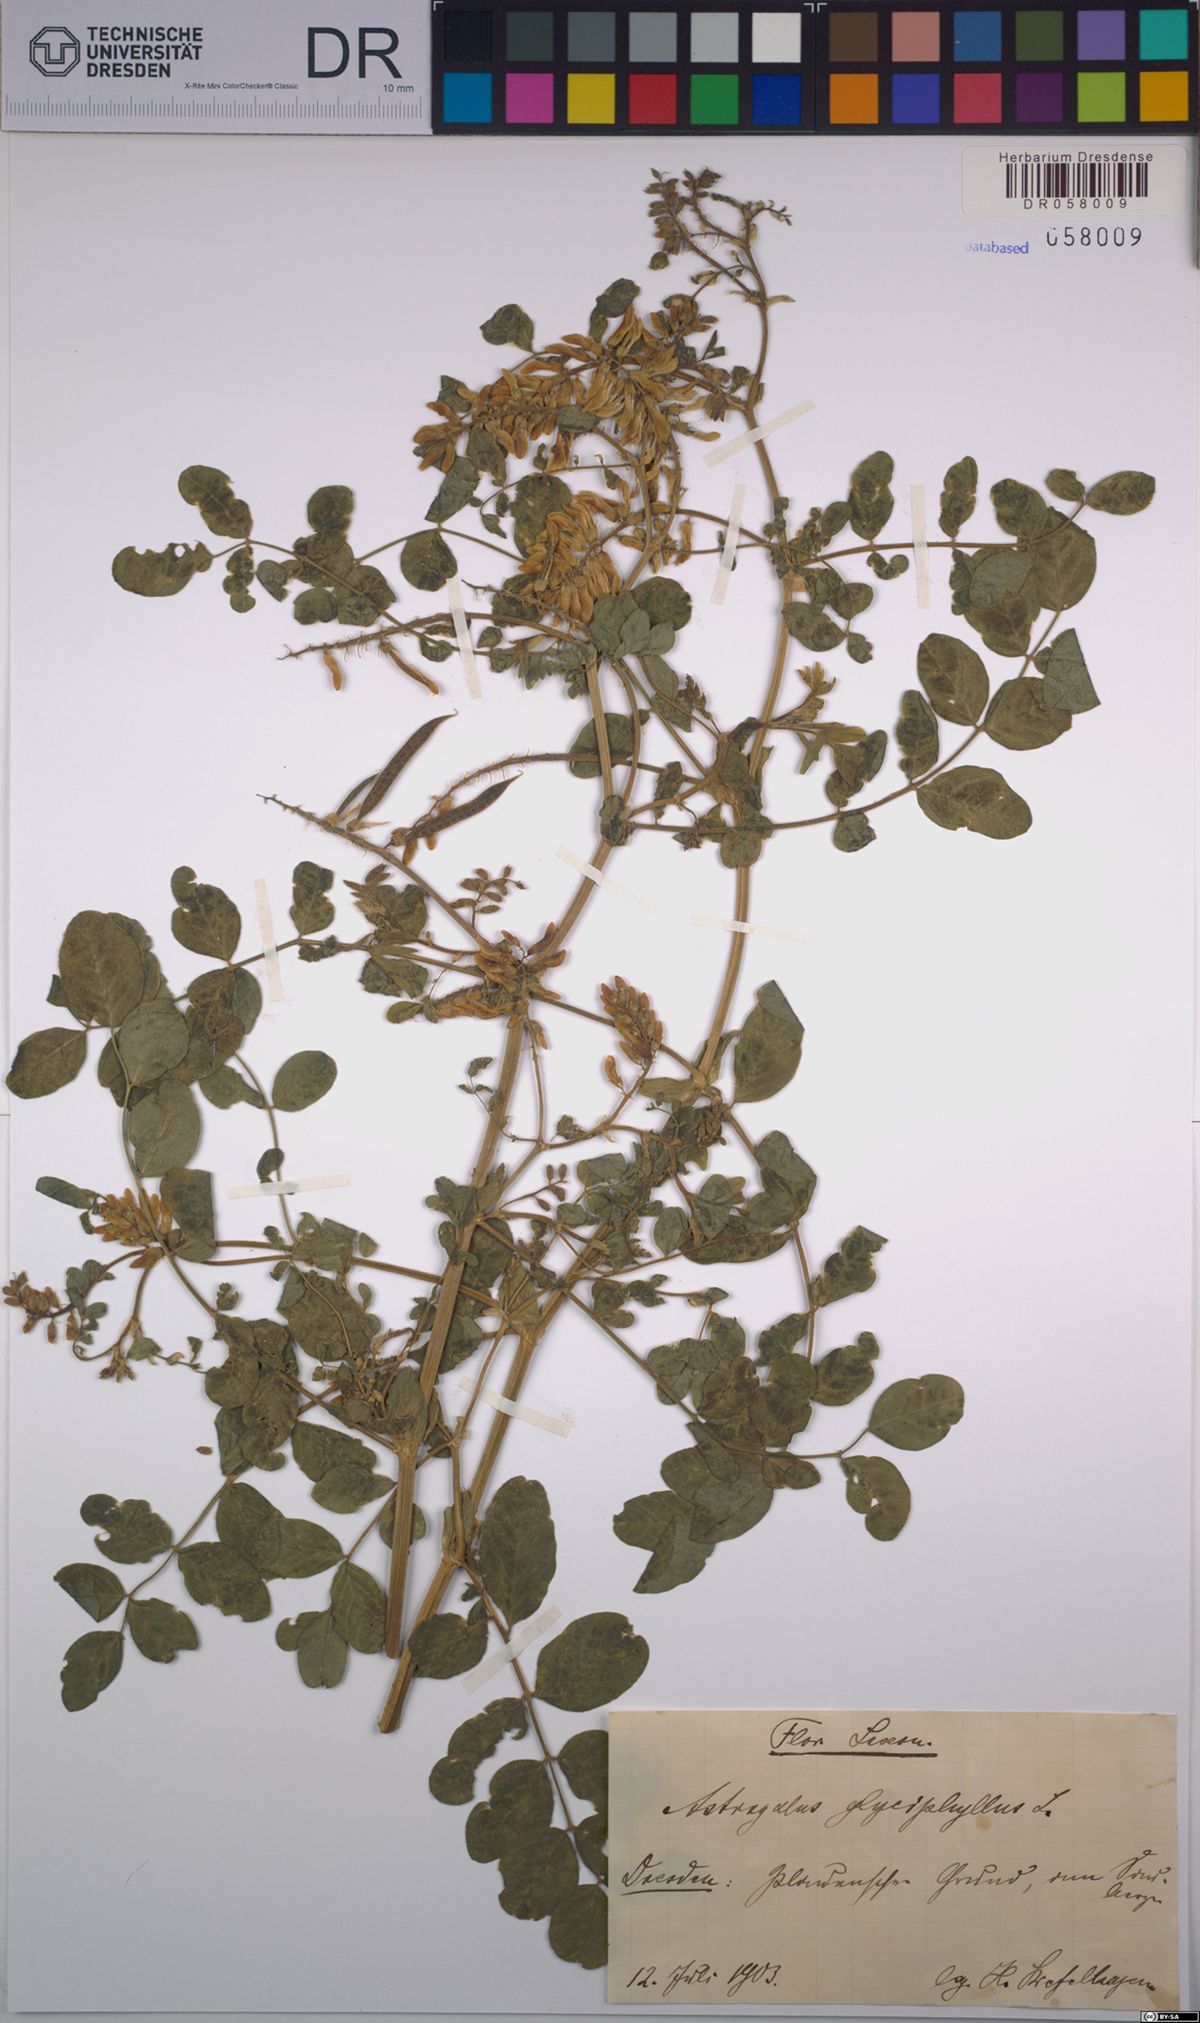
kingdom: Plantae
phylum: Tracheophyta
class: Magnoliopsida
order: Fabales
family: Fabaceae
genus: Astragalus
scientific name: Astragalus glycyphyllos
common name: Wild liquorice
